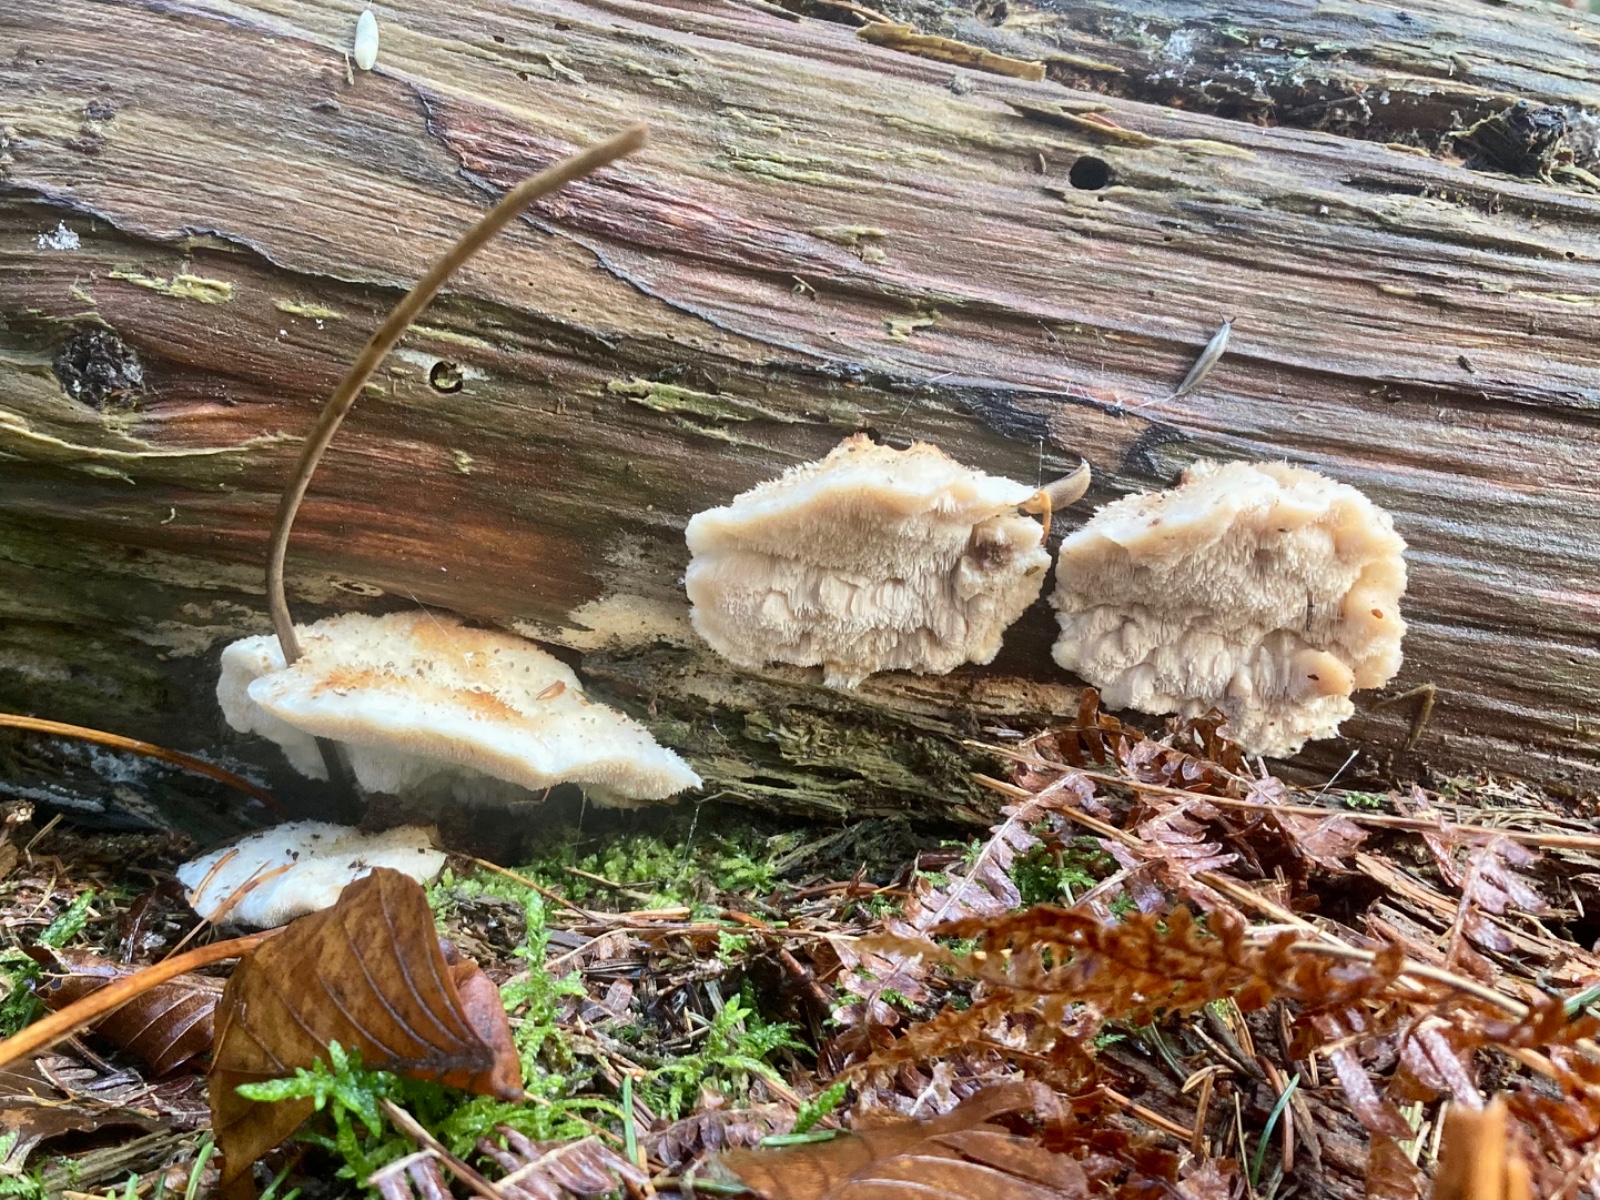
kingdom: Fungi
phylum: Basidiomycota
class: Agaricomycetes
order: Polyporales
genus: Fuscopostia
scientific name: Fuscopostia fragilis
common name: brunende kødporesvamp
